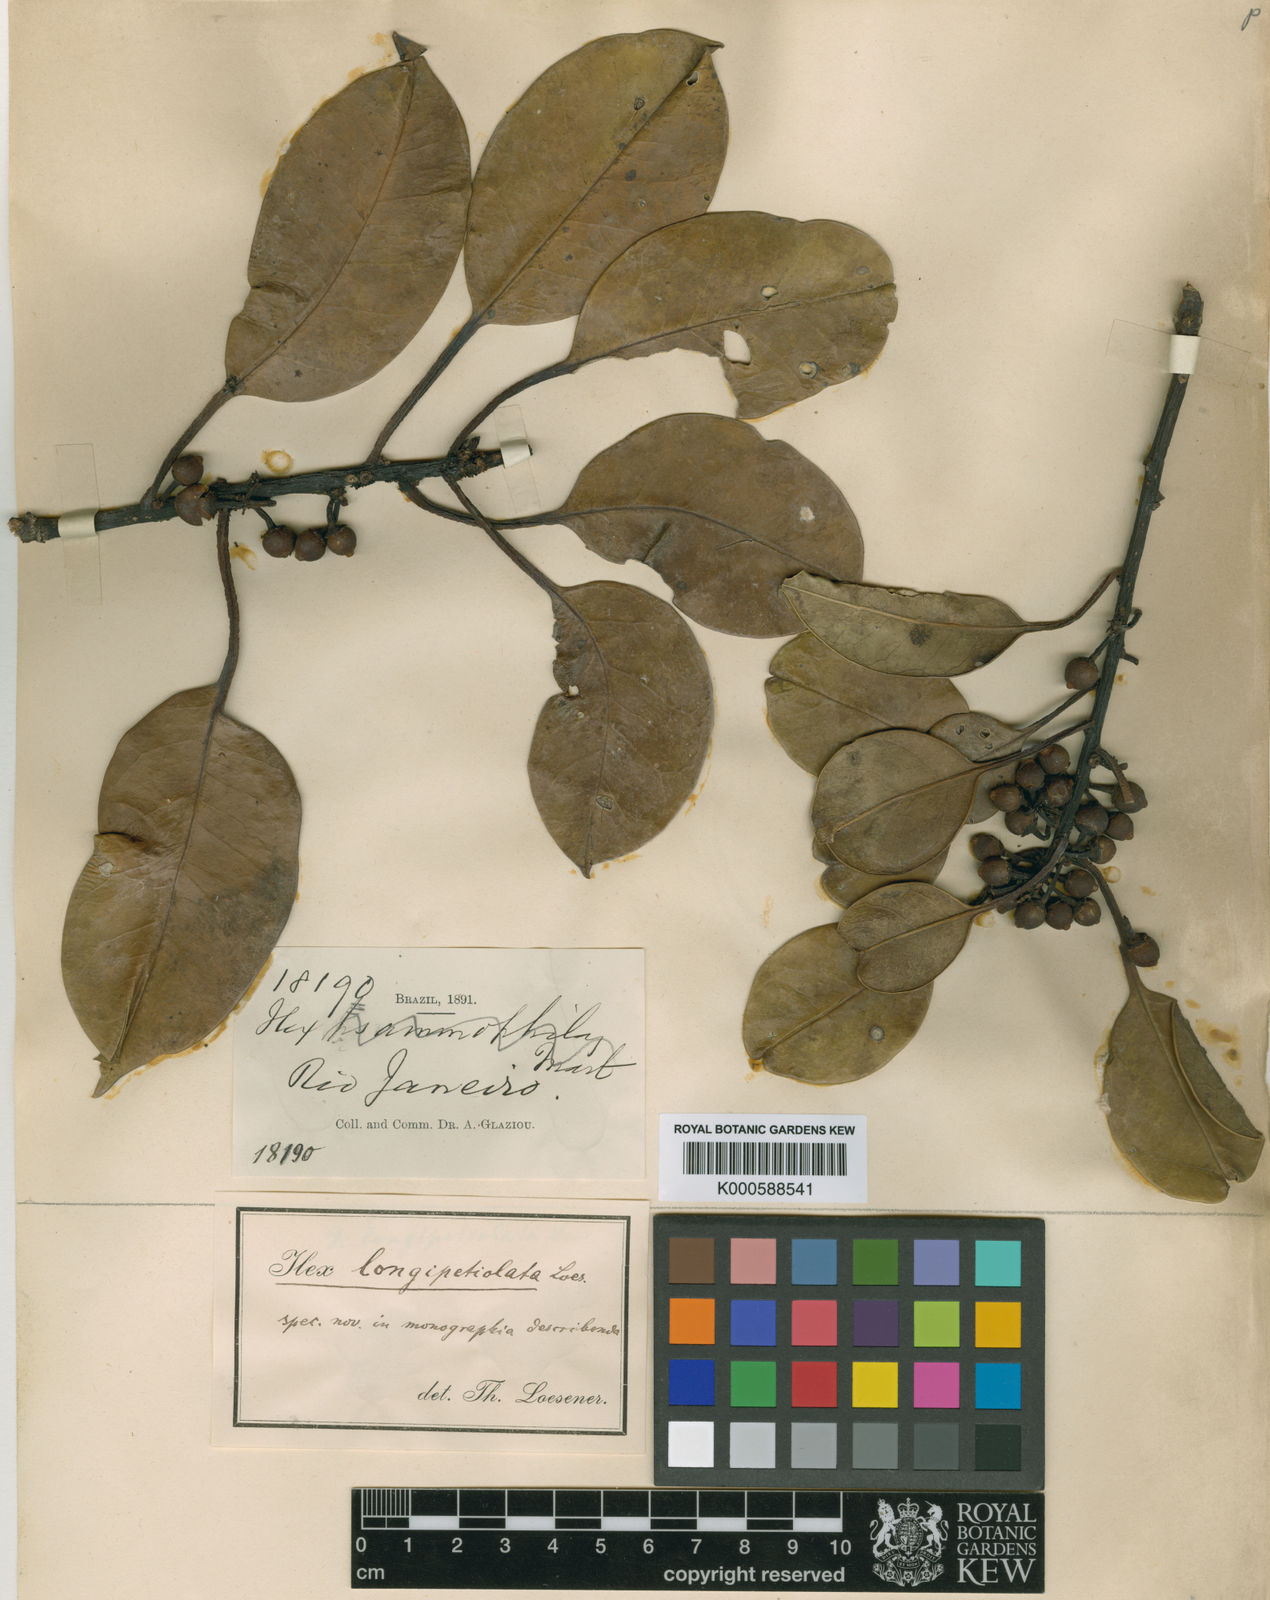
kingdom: Plantae
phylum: Tracheophyta
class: Magnoliopsida
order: Aquifoliales
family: Aquifoliaceae
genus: Ilex
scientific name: Ilex longipetiolata
